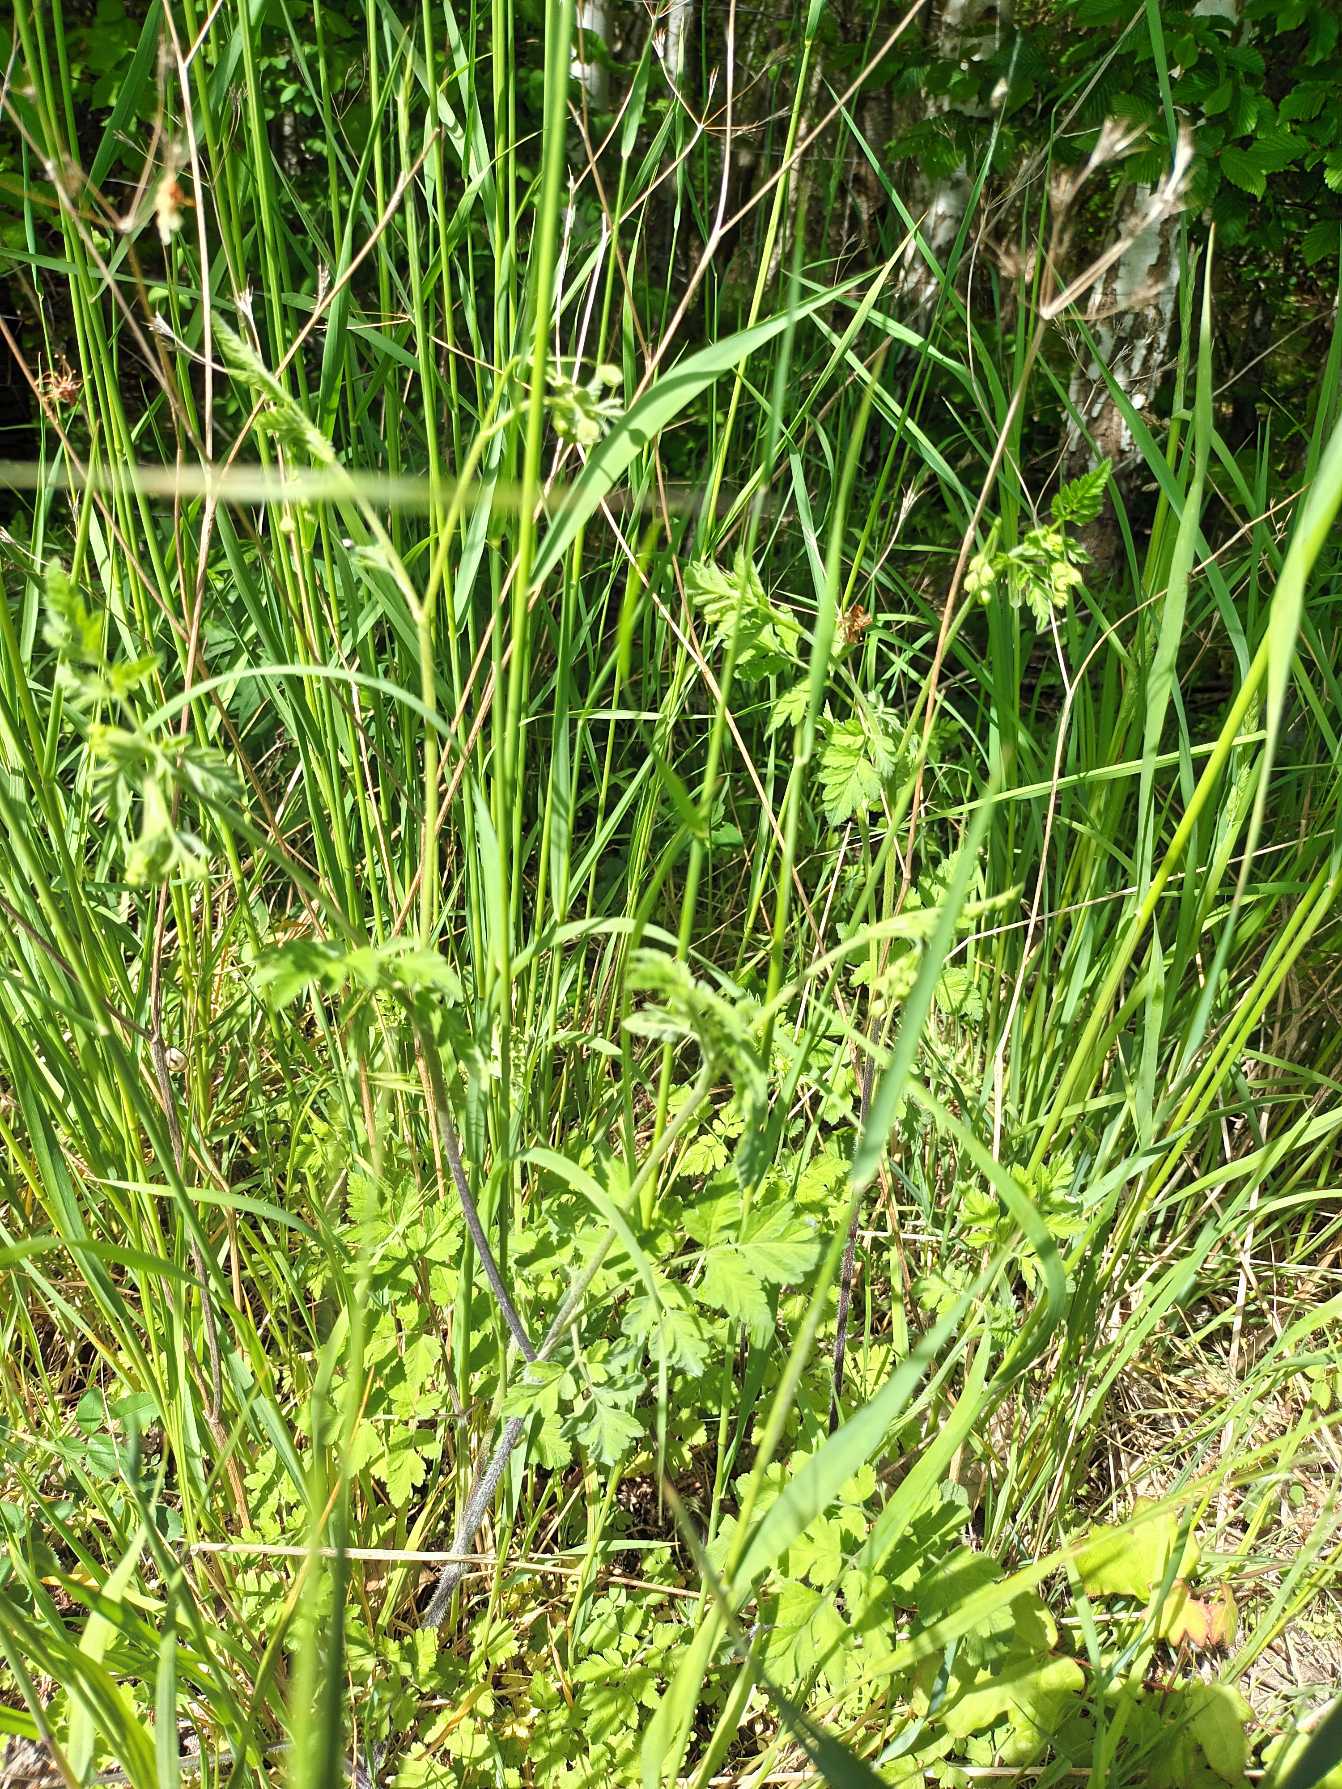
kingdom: Plantae
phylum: Tracheophyta
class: Magnoliopsida
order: Apiales
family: Apiaceae
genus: Chaerophyllum
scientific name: Chaerophyllum temulum
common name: Almindelig hulsvøb
